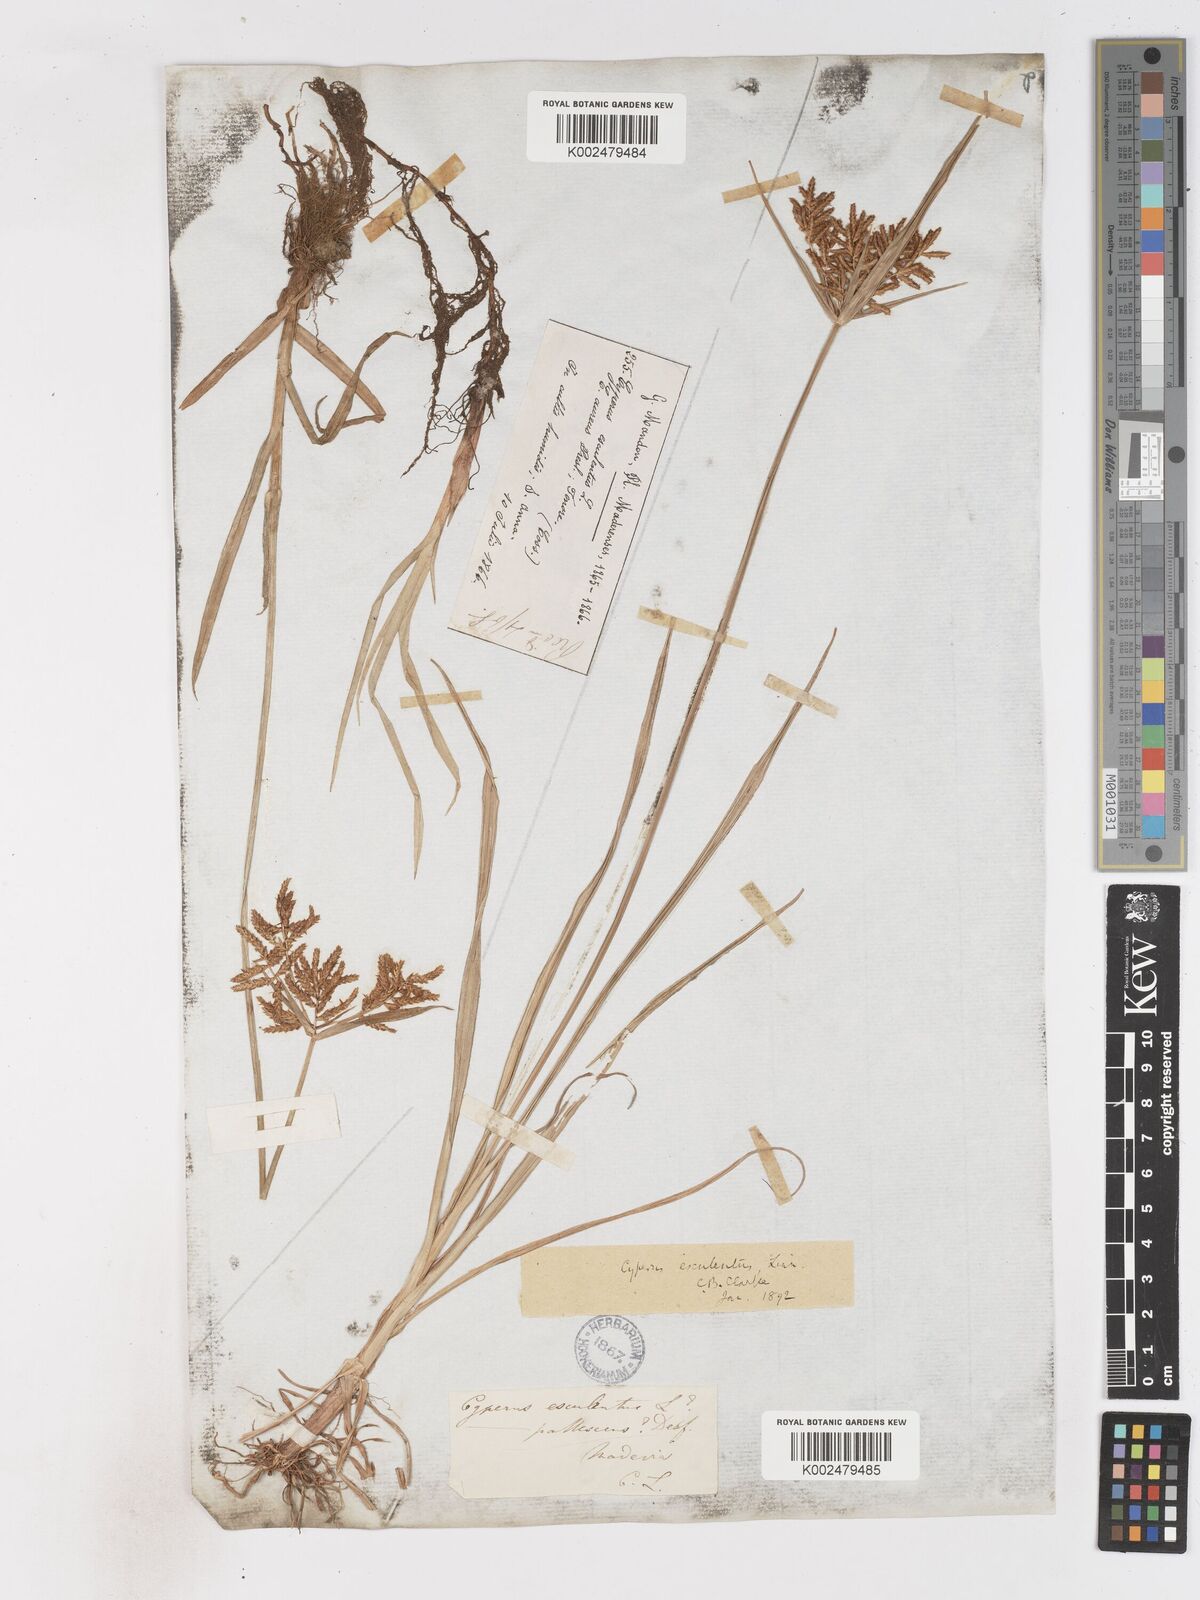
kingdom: Plantae
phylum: Tracheophyta
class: Liliopsida
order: Poales
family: Cyperaceae
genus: Cyperus
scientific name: Cyperus esculentus
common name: Yellow nutsedge
